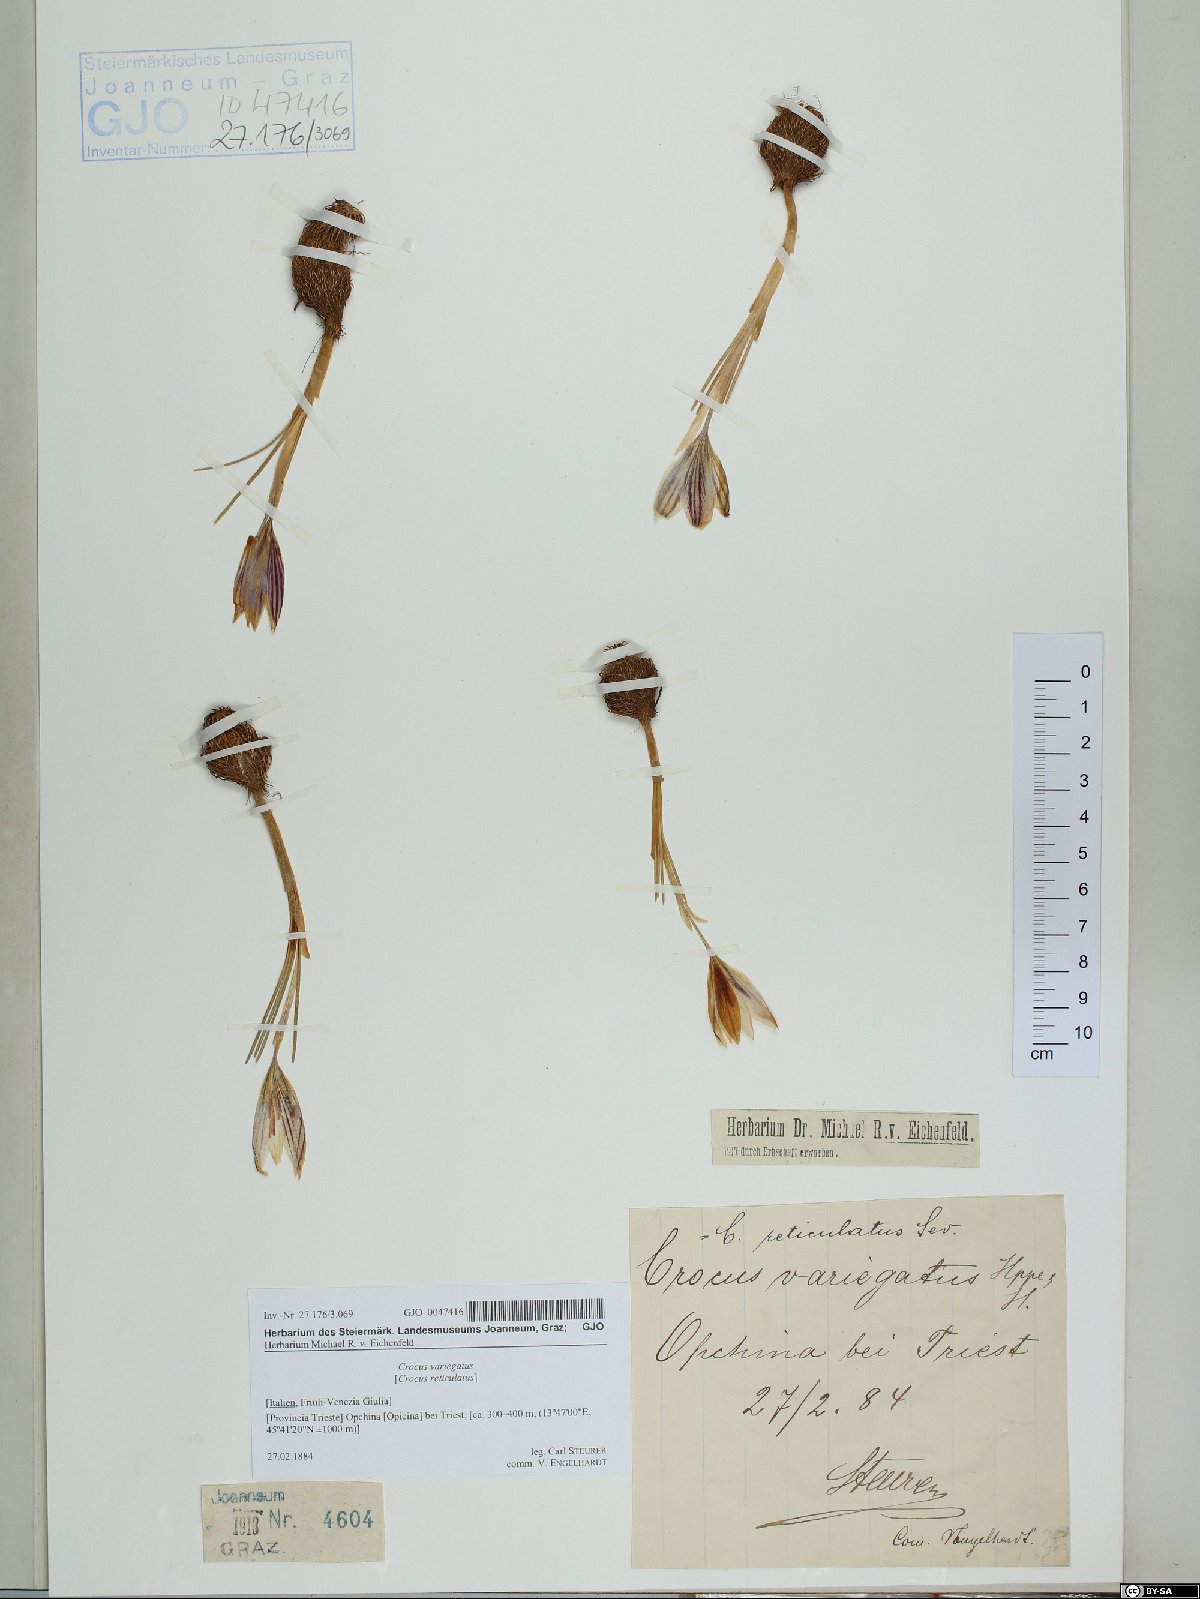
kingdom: Plantae
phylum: Tracheophyta
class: Liliopsida
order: Asparagales
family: Iridaceae
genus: Crocus
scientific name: Crocus variegatus
